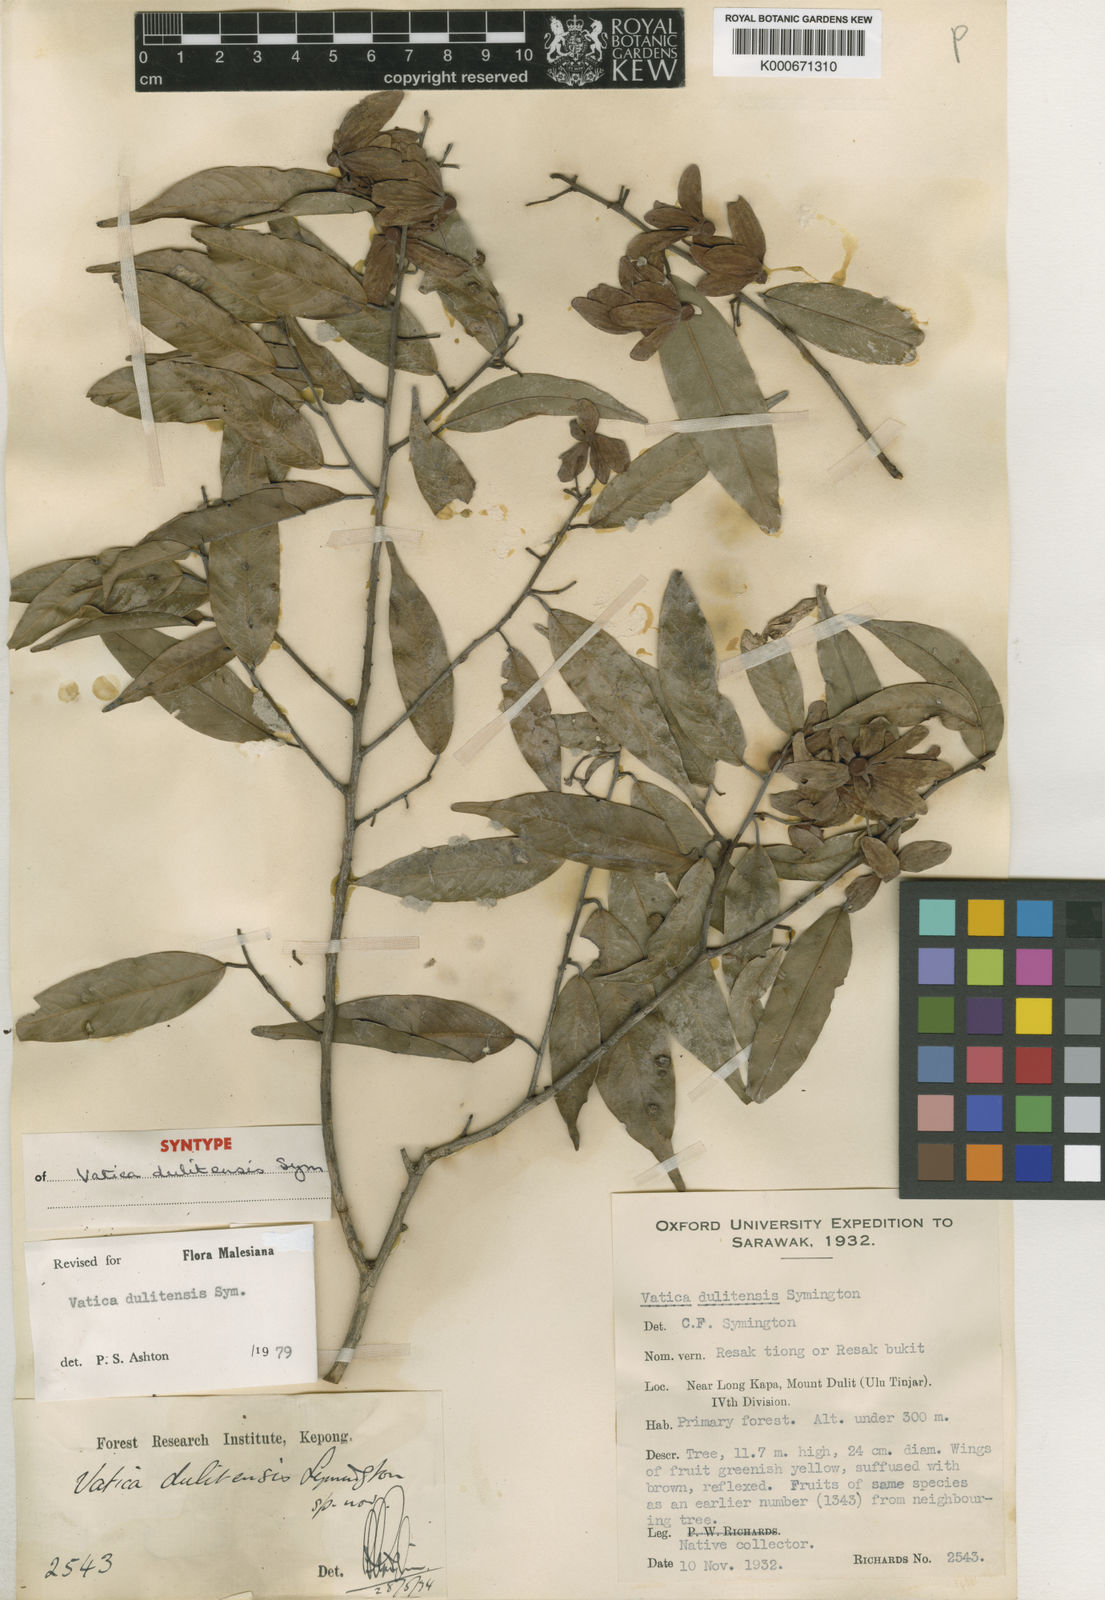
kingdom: Plantae
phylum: Tracheophyta
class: Magnoliopsida
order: Malvales
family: Dipterocarpaceae
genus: Vatica
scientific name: Vatica dulitensis
